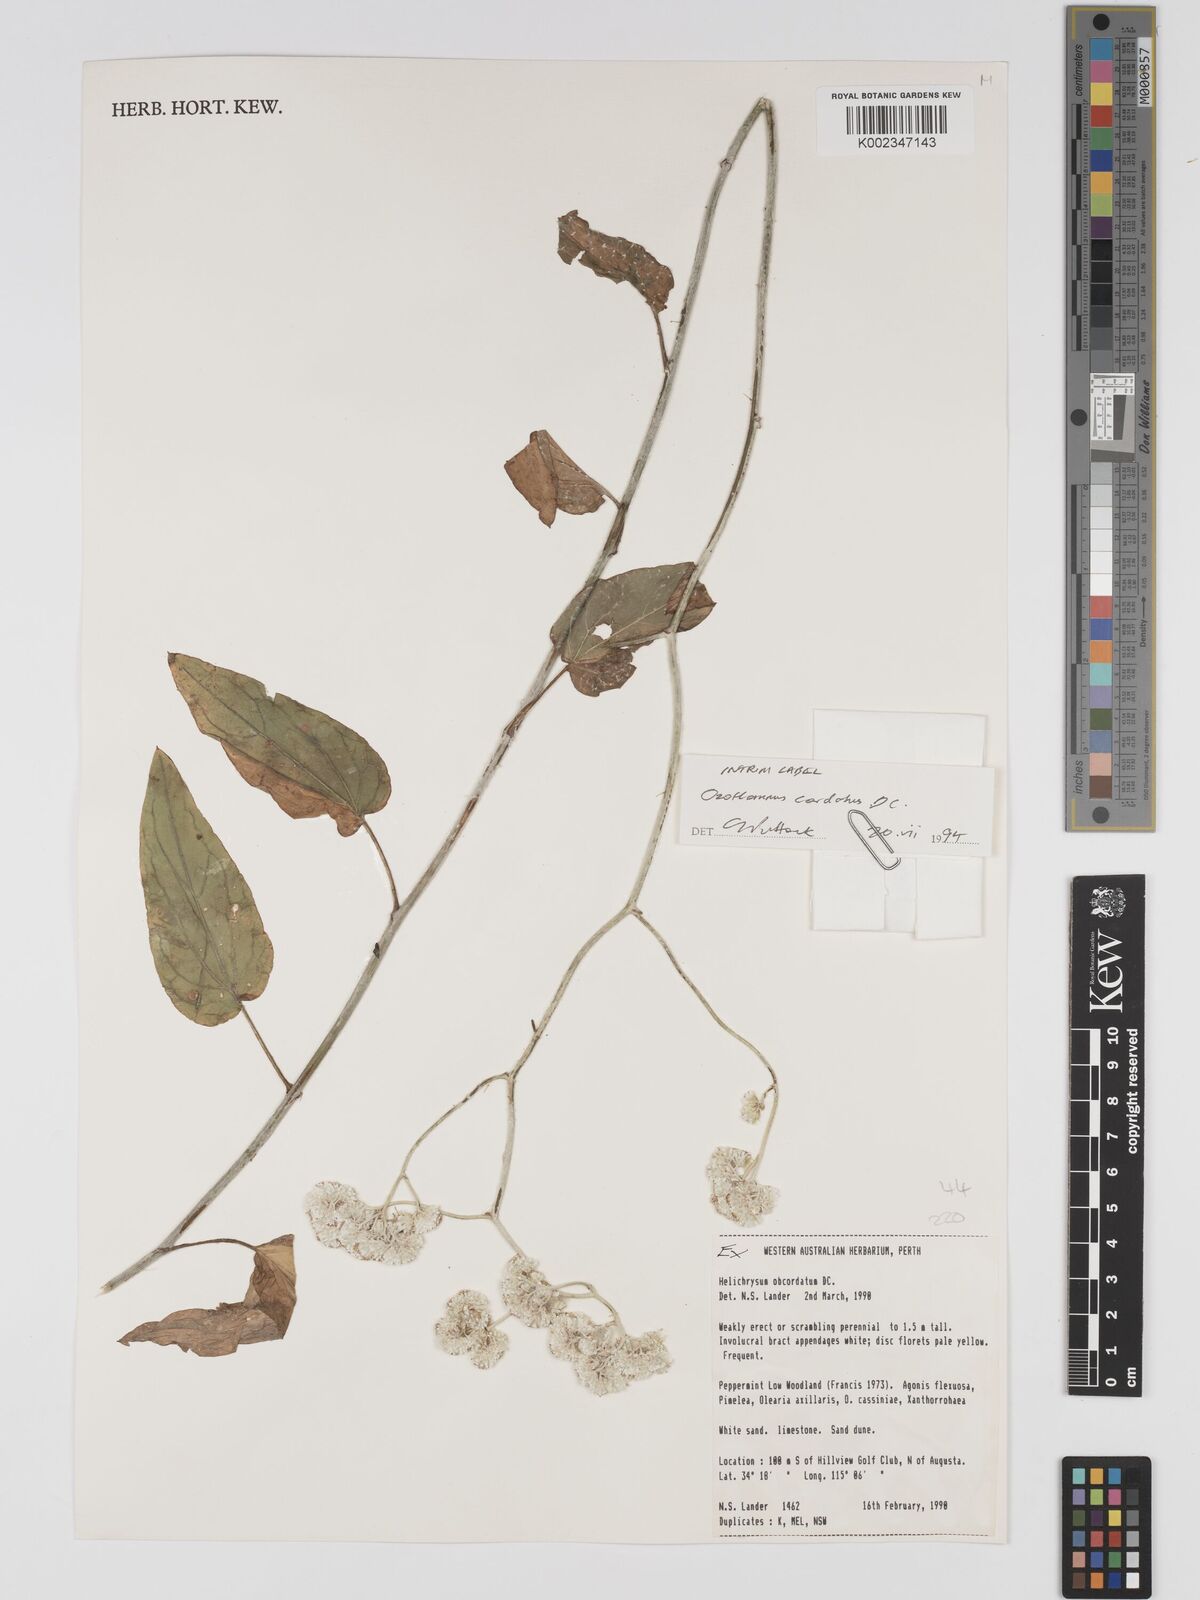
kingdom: Plantae
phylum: Tracheophyta
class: Magnoliopsida
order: Asterales
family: Asteraceae
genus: Ozothamnus
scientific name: Ozothamnus
